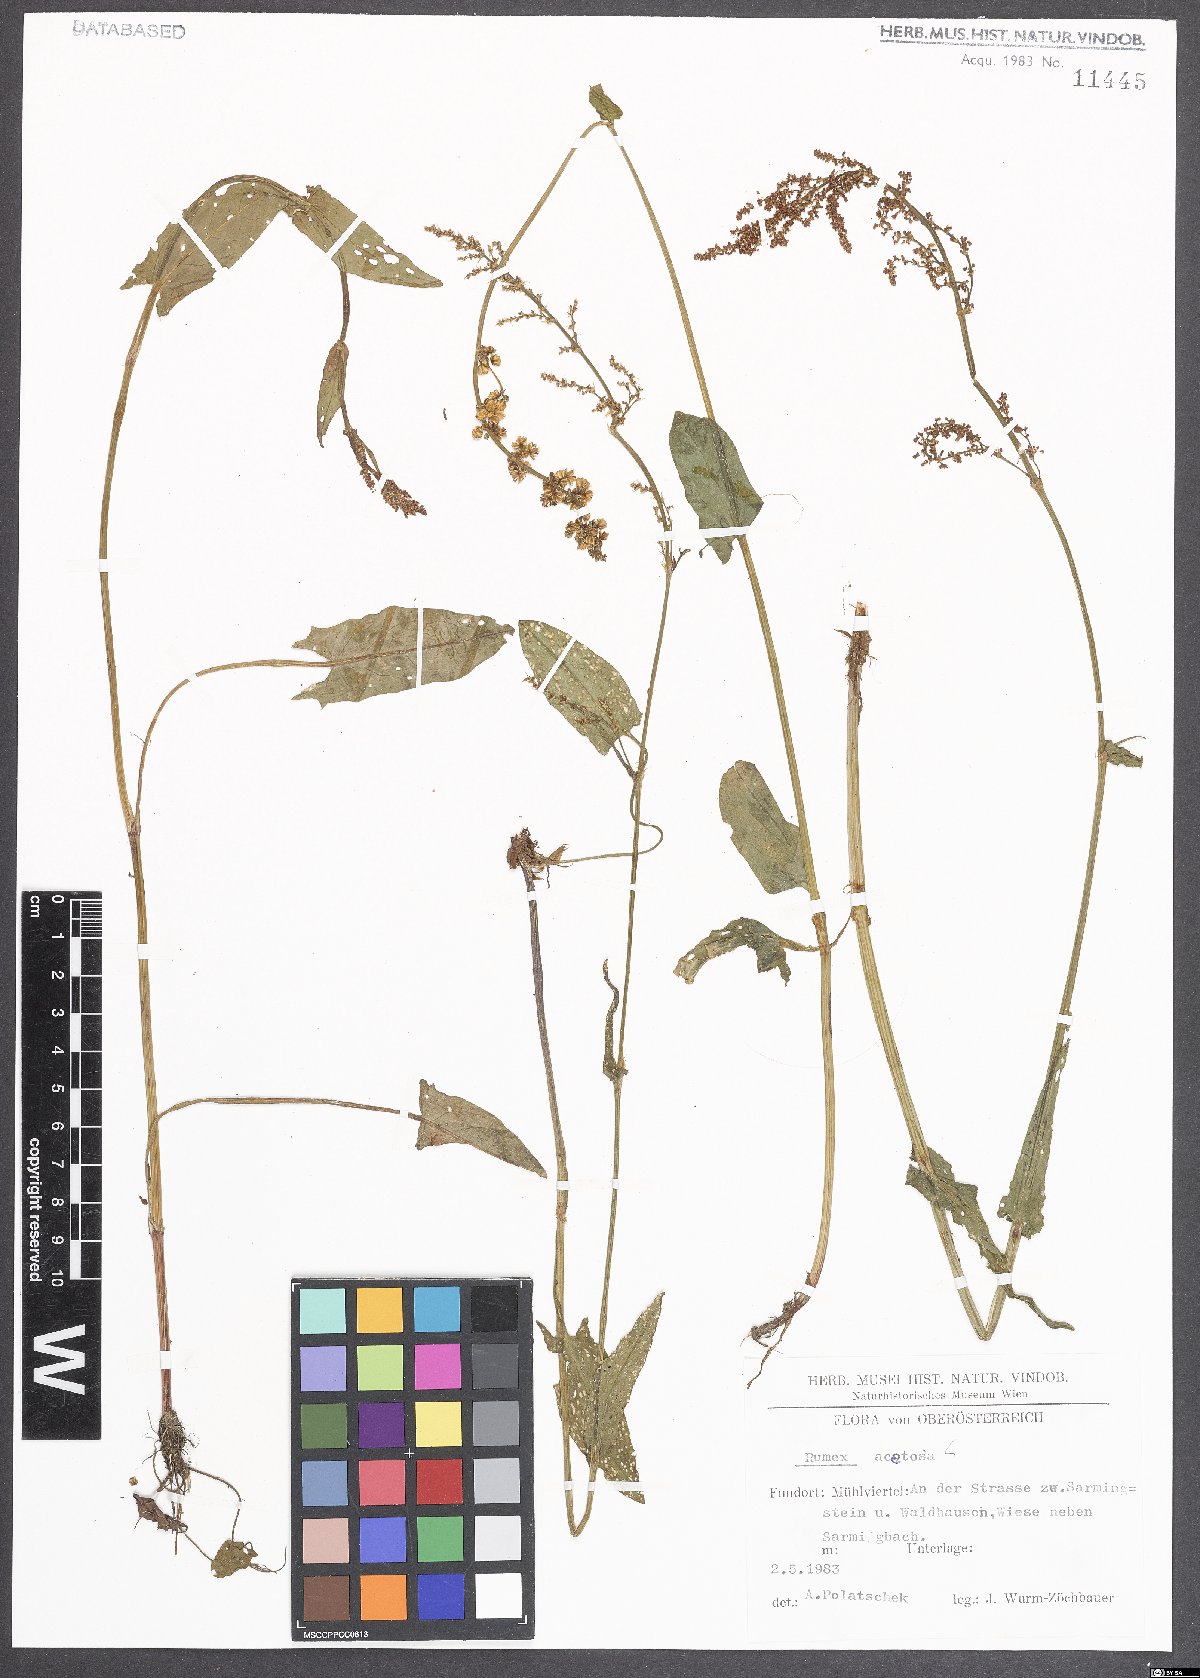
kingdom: Plantae
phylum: Tracheophyta
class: Magnoliopsida
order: Caryophyllales
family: Polygonaceae
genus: Rumex
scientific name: Rumex acetosa
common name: Garden sorrel
